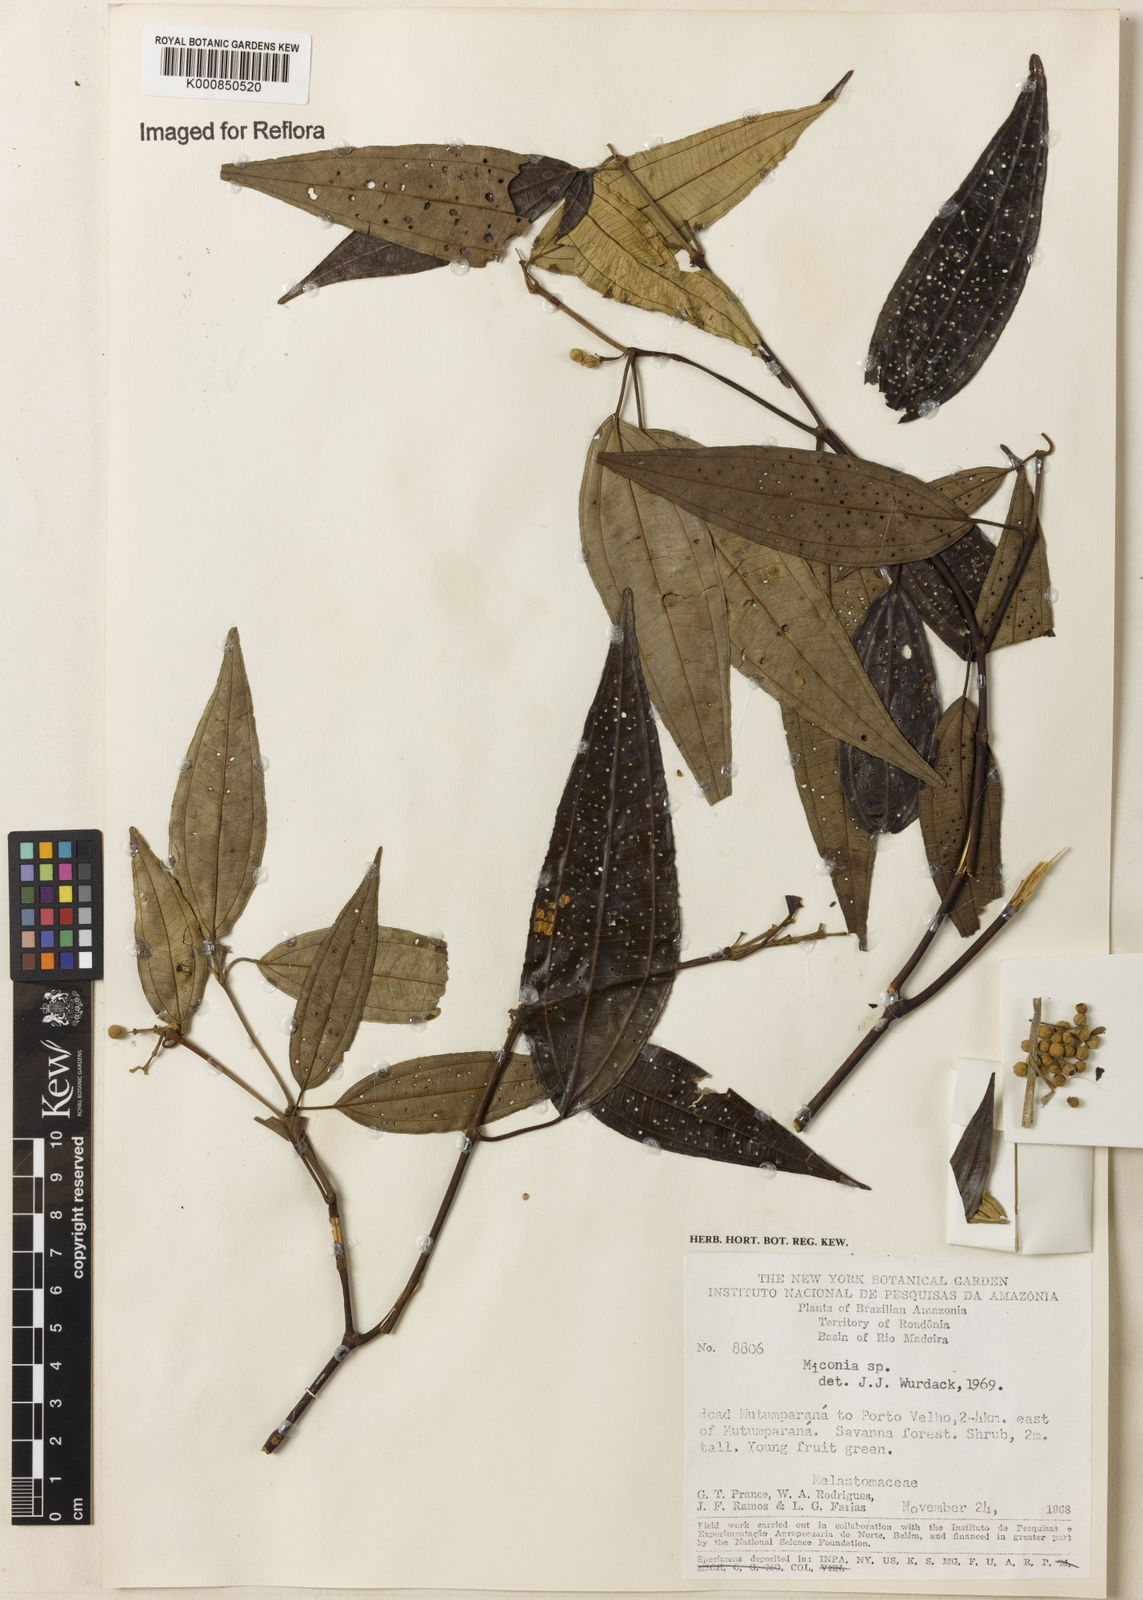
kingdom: Plantae
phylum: Tracheophyta
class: Magnoliopsida
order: Myrtales
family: Melastomataceae
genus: Miconia
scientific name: Miconia
